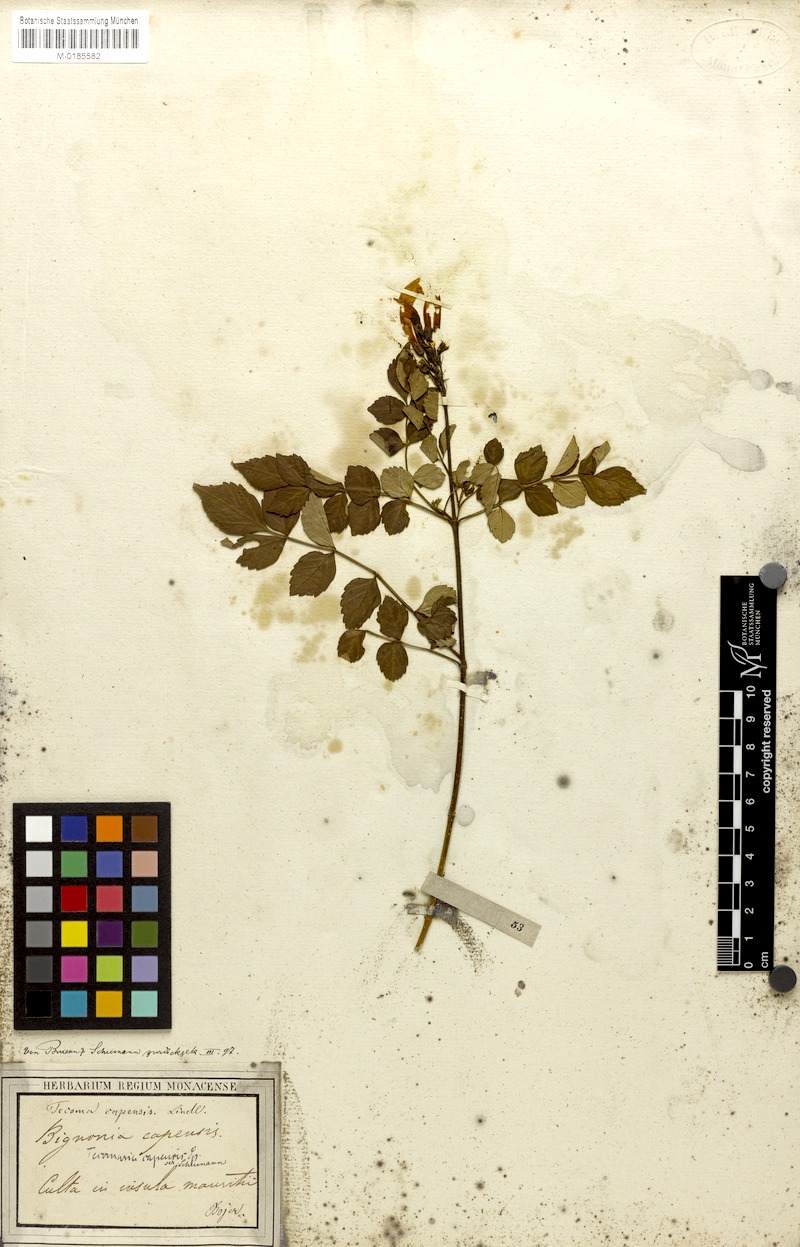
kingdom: Plantae
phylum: Tracheophyta
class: Magnoliopsida
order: Lamiales
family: Bignoniaceae
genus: Tecomaria
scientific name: Tecomaria capensis
